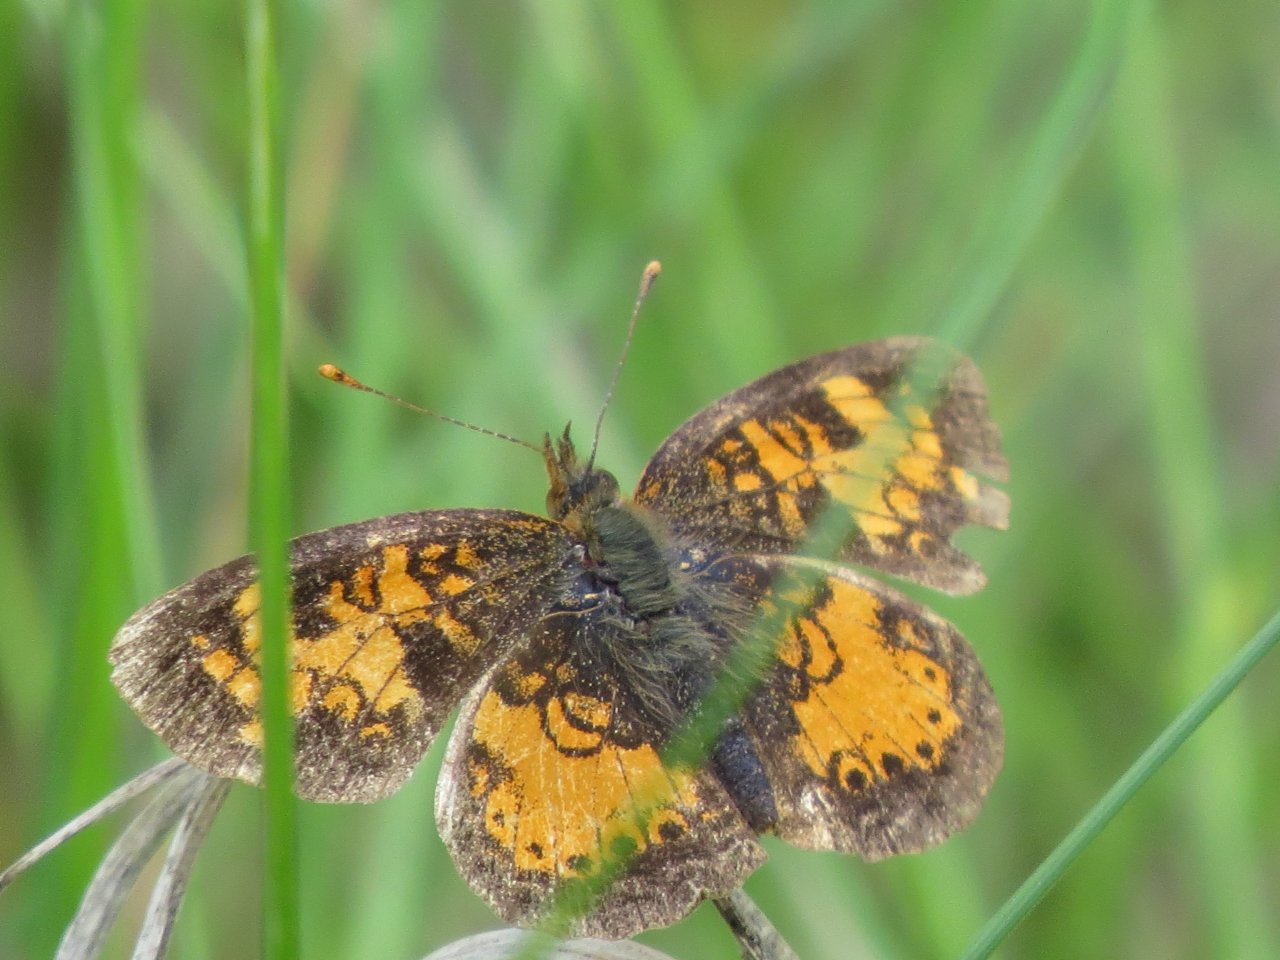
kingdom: Animalia
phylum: Arthropoda
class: Insecta
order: Lepidoptera
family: Nymphalidae
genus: Phyciodes
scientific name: Phyciodes tharos
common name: Northern Crescent
